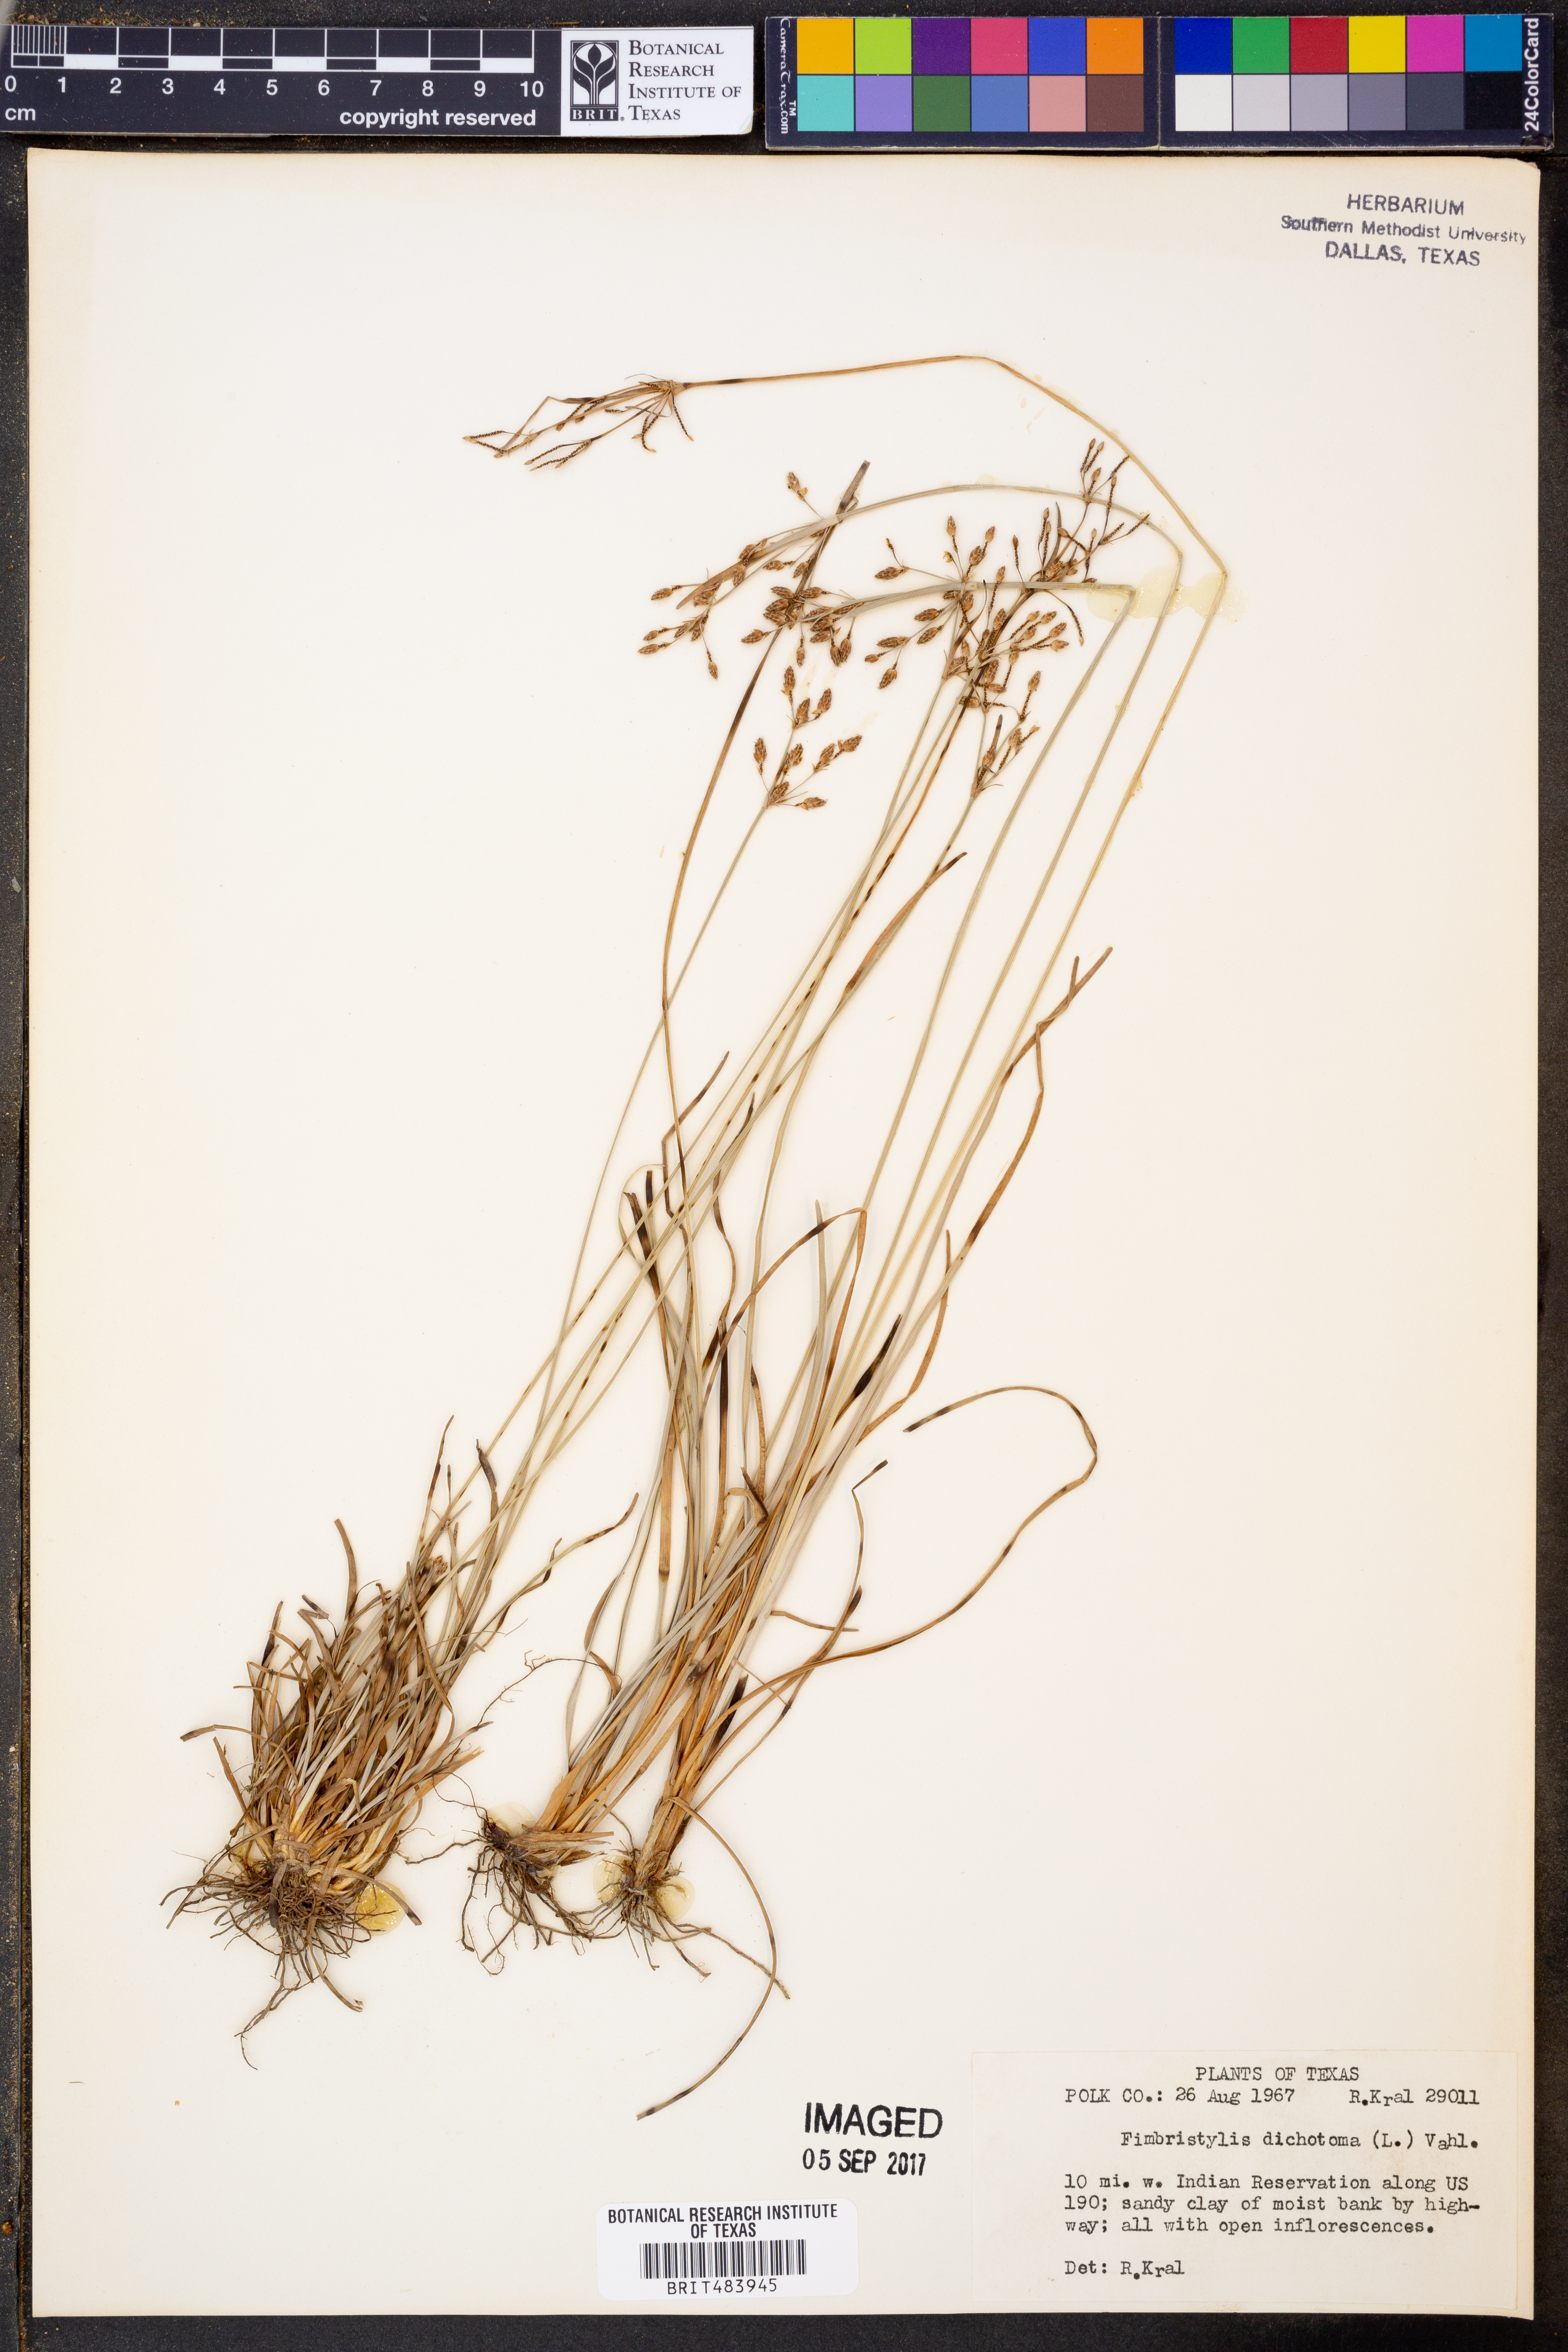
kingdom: Plantae
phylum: Tracheophyta
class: Liliopsida
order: Poales
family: Cyperaceae
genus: Fimbristylis
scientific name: Fimbristylis dichotoma
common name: Forked fimbry
